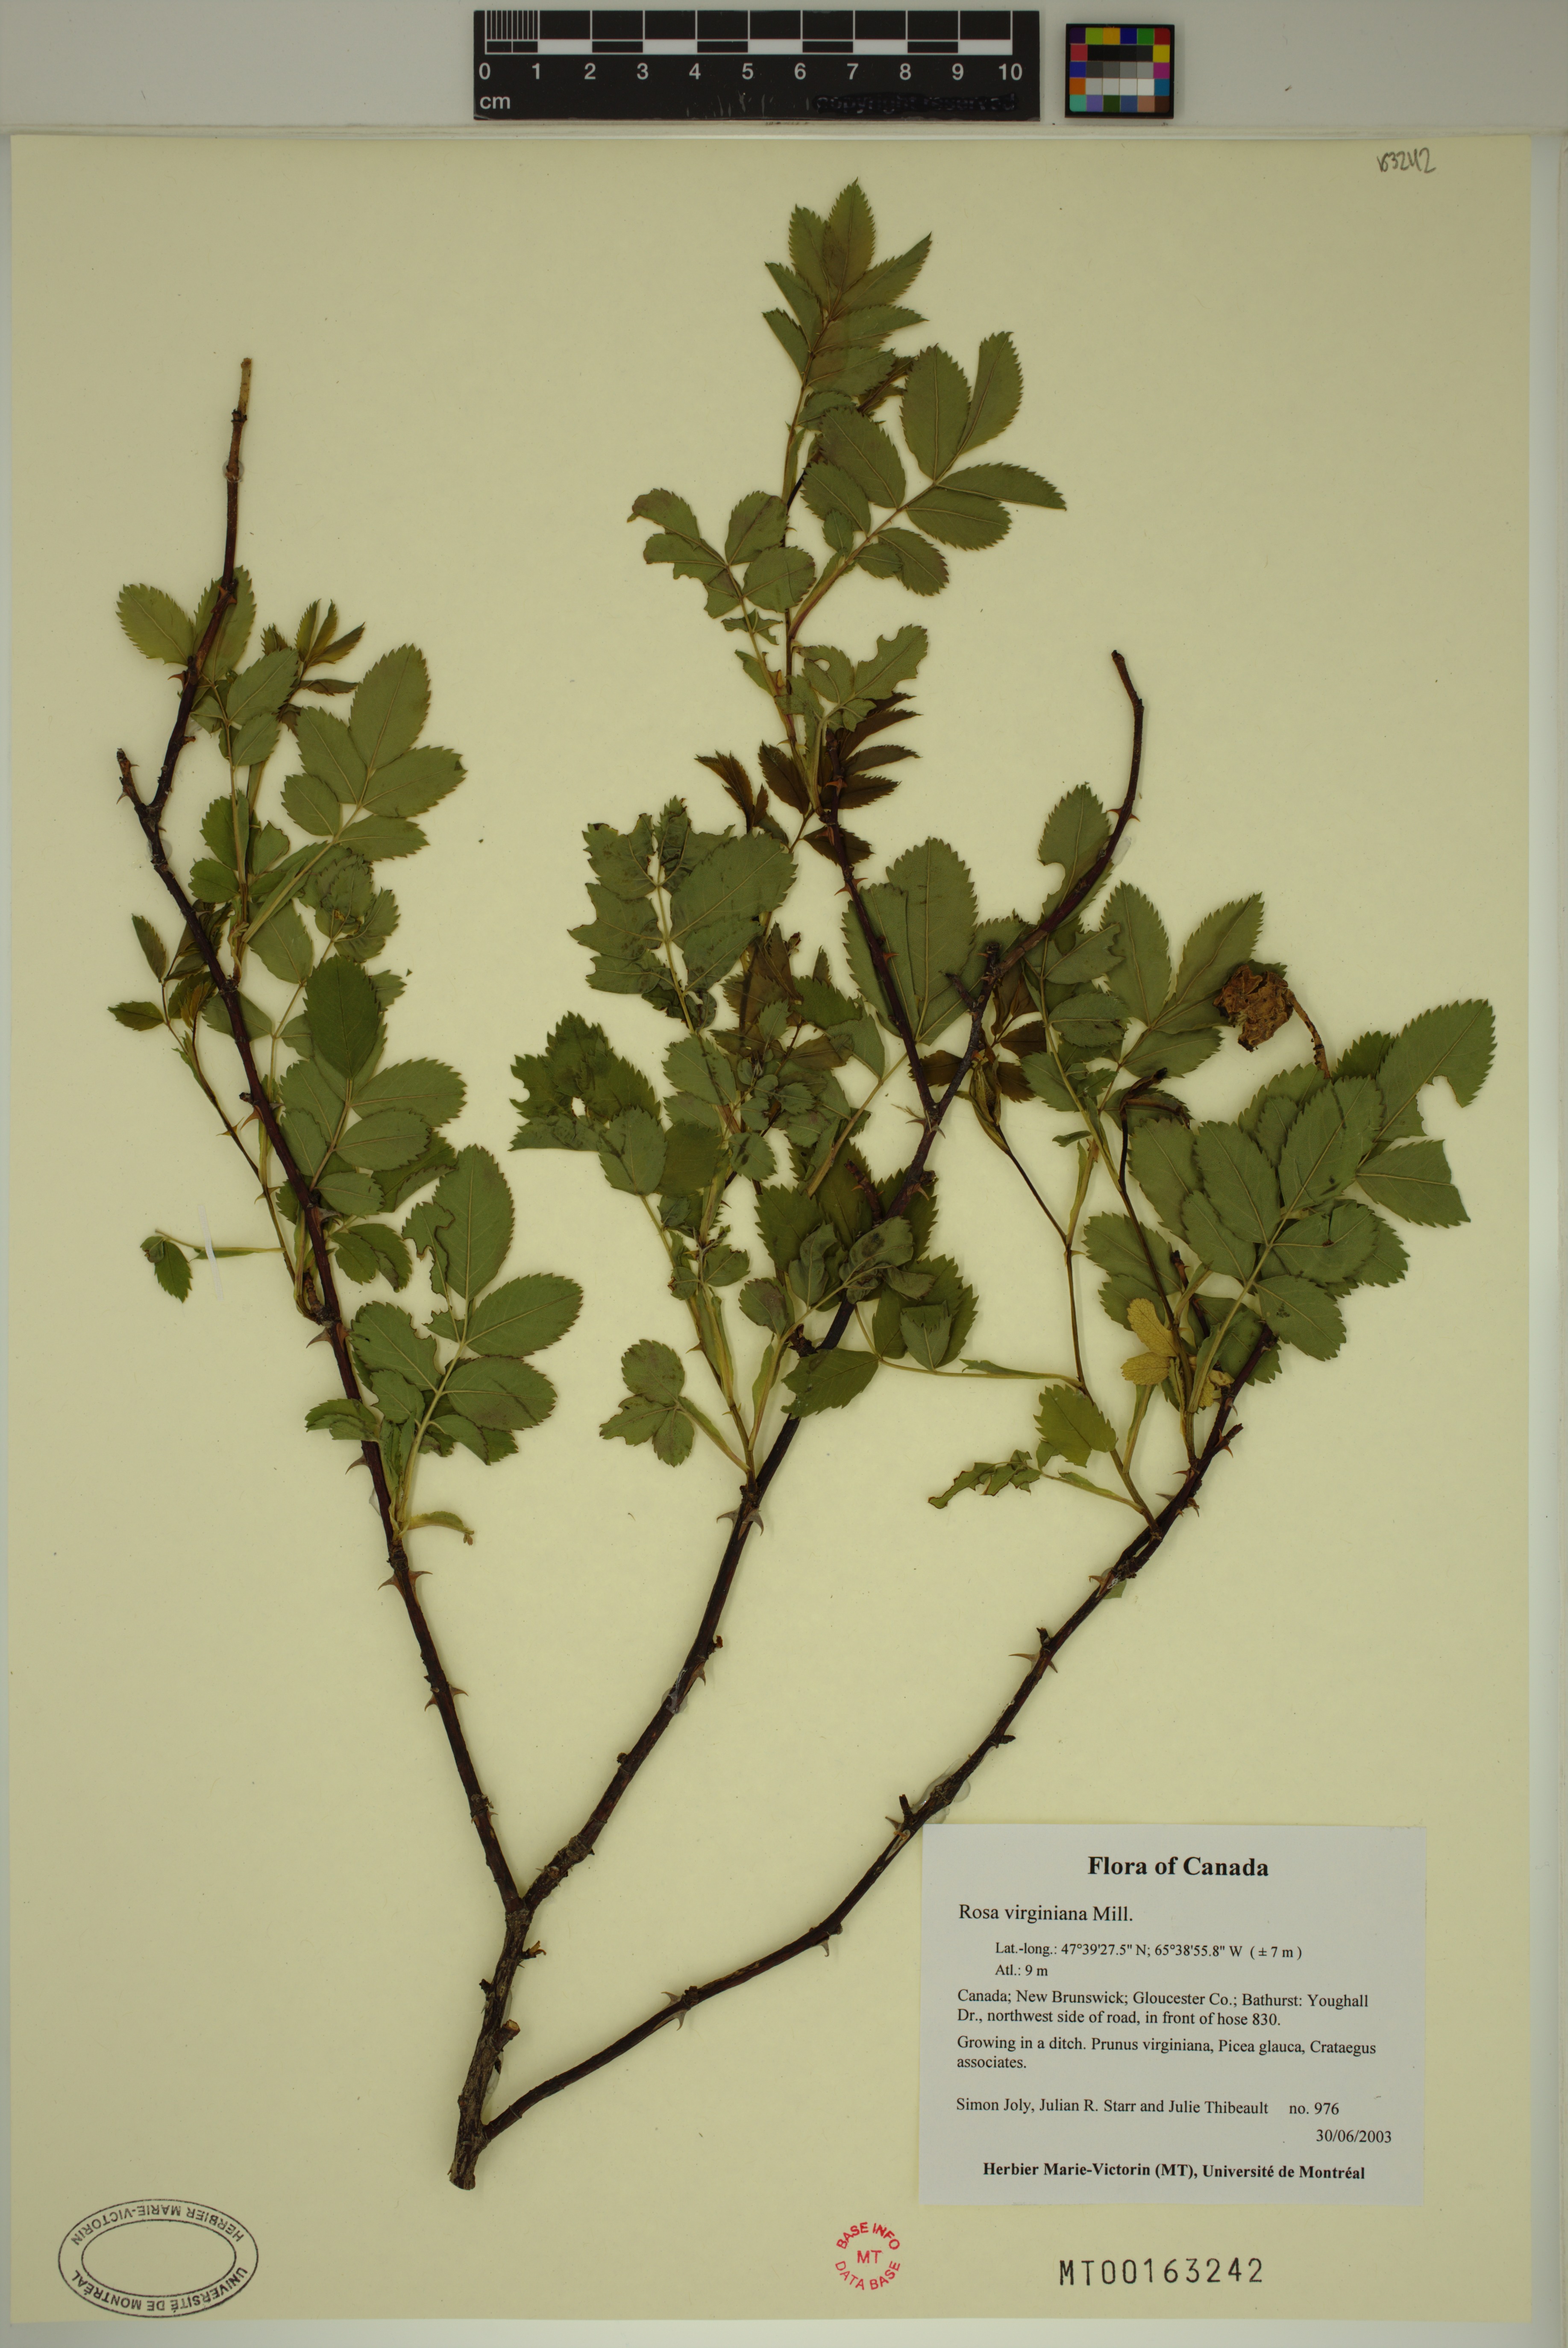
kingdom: Plantae
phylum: Tracheophyta
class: Magnoliopsida
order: Rosales
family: Rosaceae
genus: Rosa
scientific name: Rosa carolina
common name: Pasture rose
